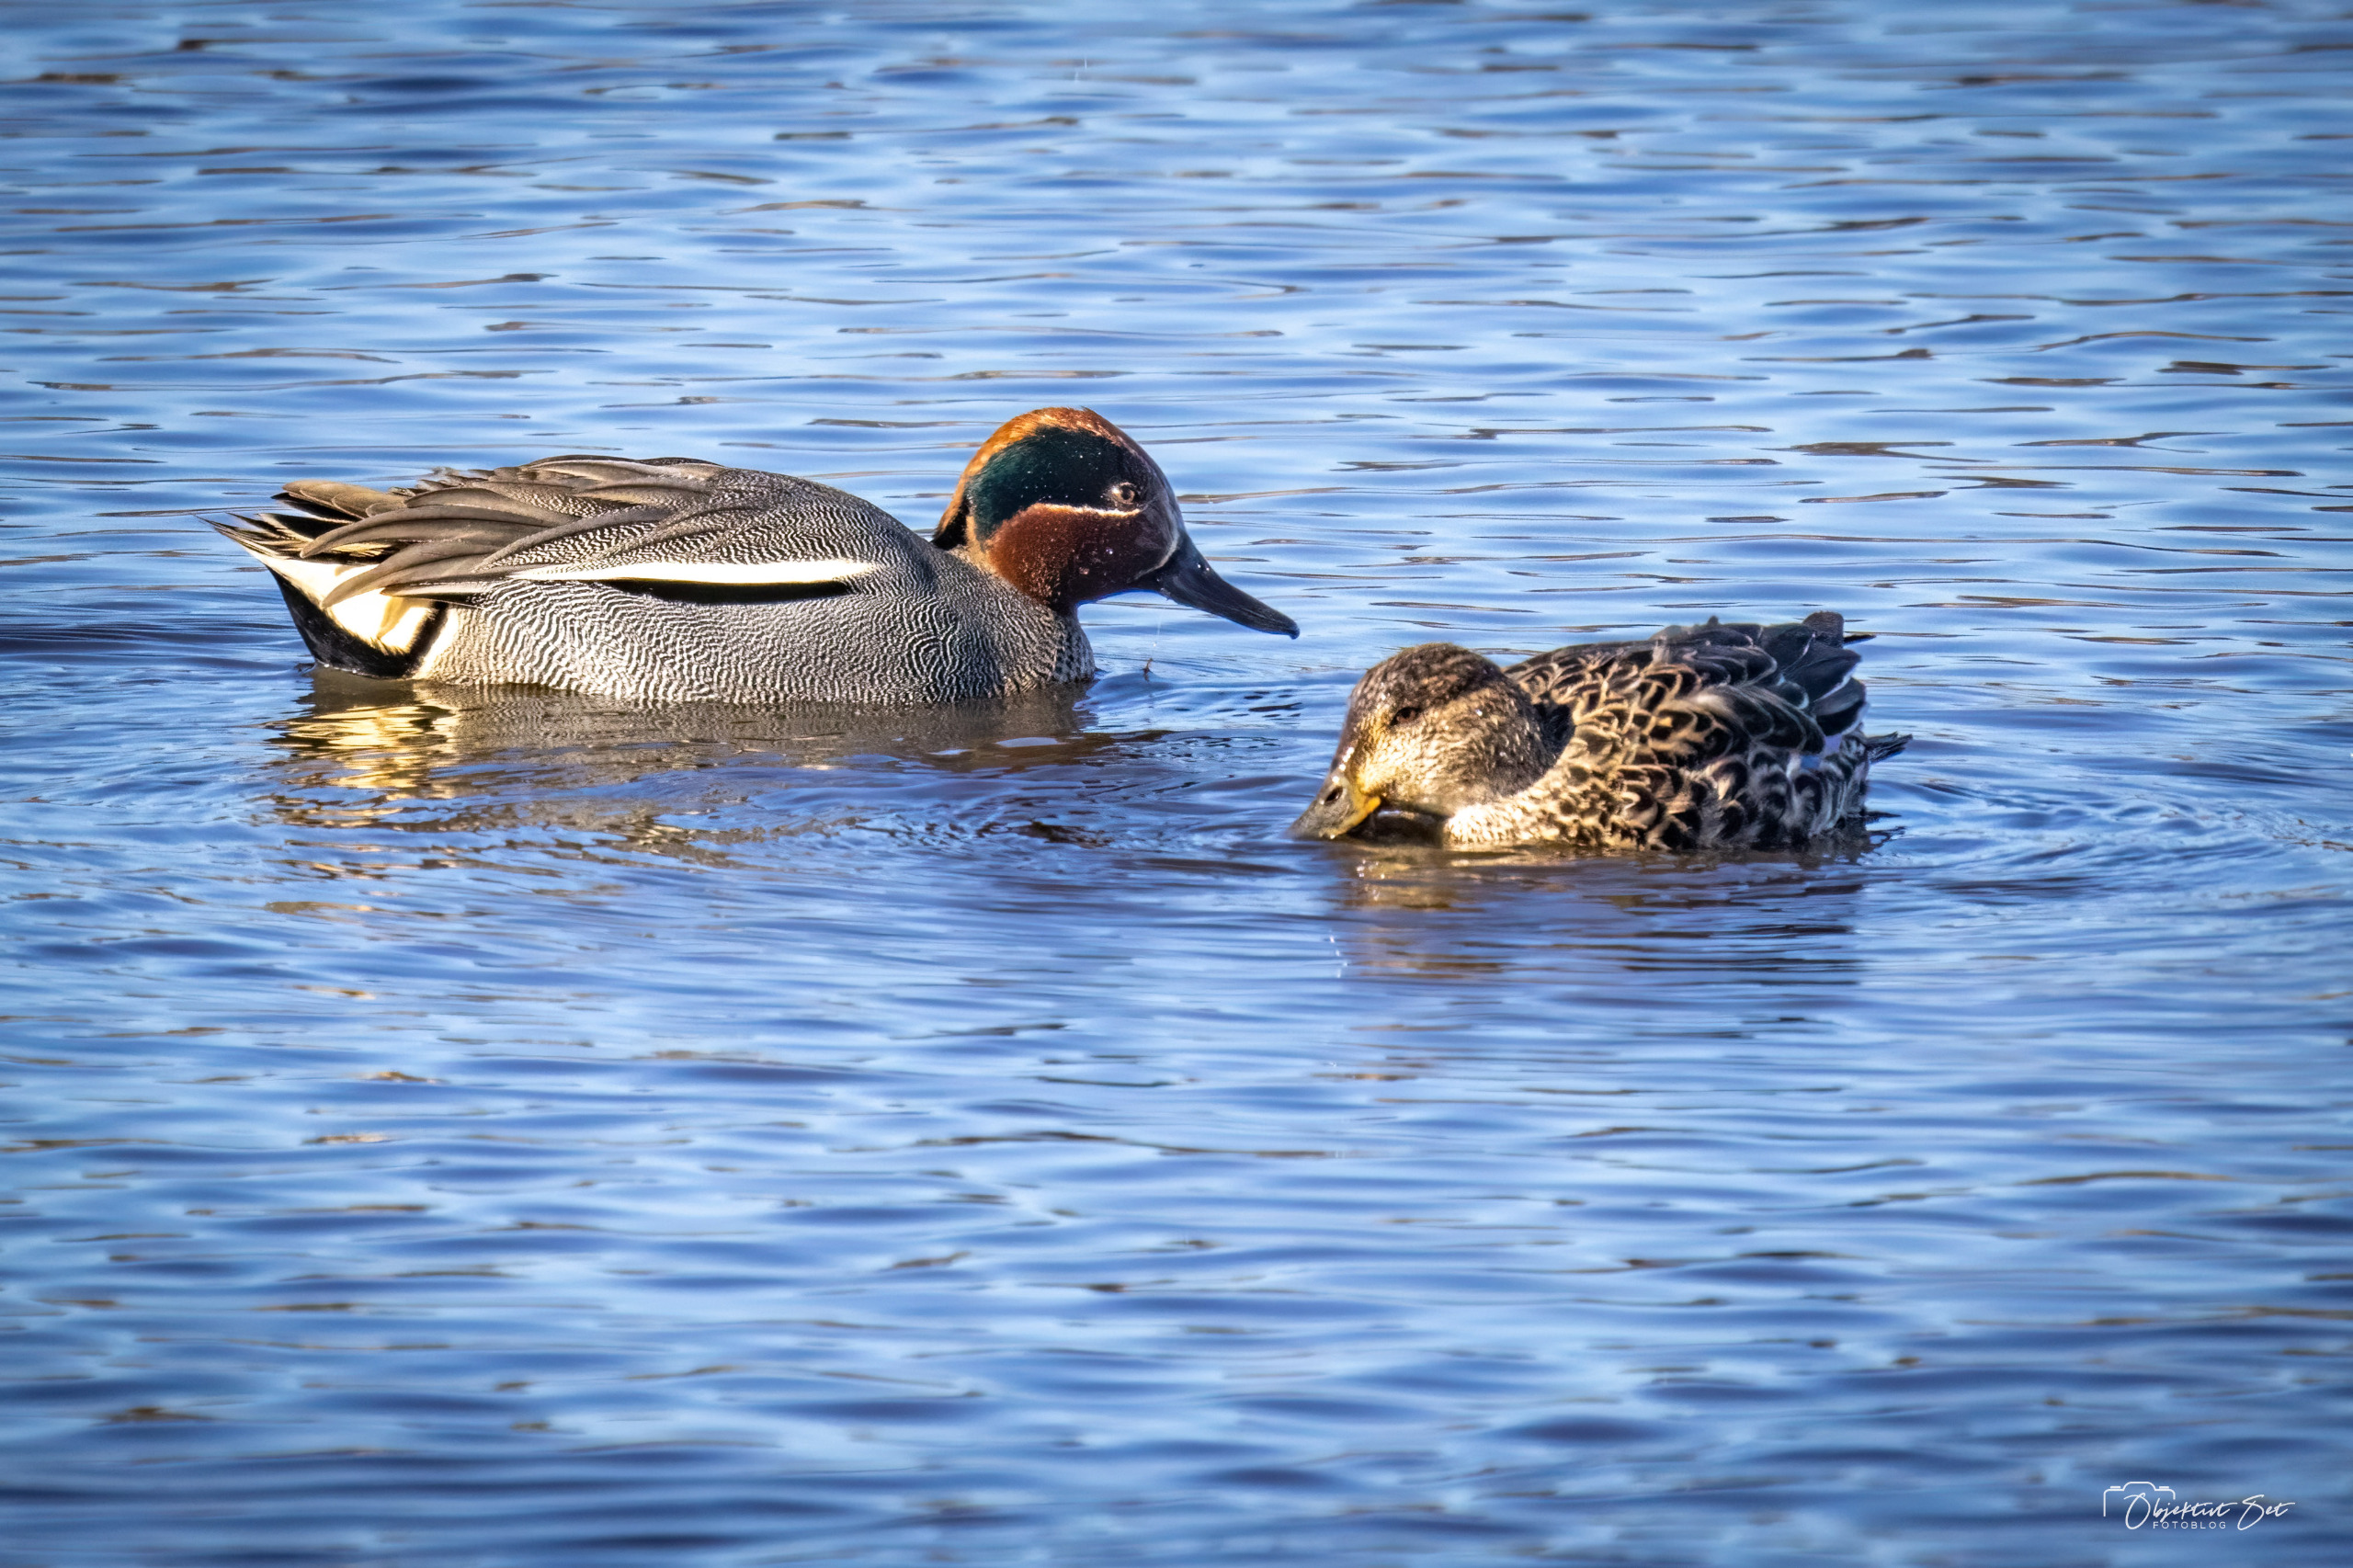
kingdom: Animalia
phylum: Chordata
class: Aves
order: Anseriformes
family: Anatidae
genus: Anas
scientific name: Anas crecca
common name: Krikand
